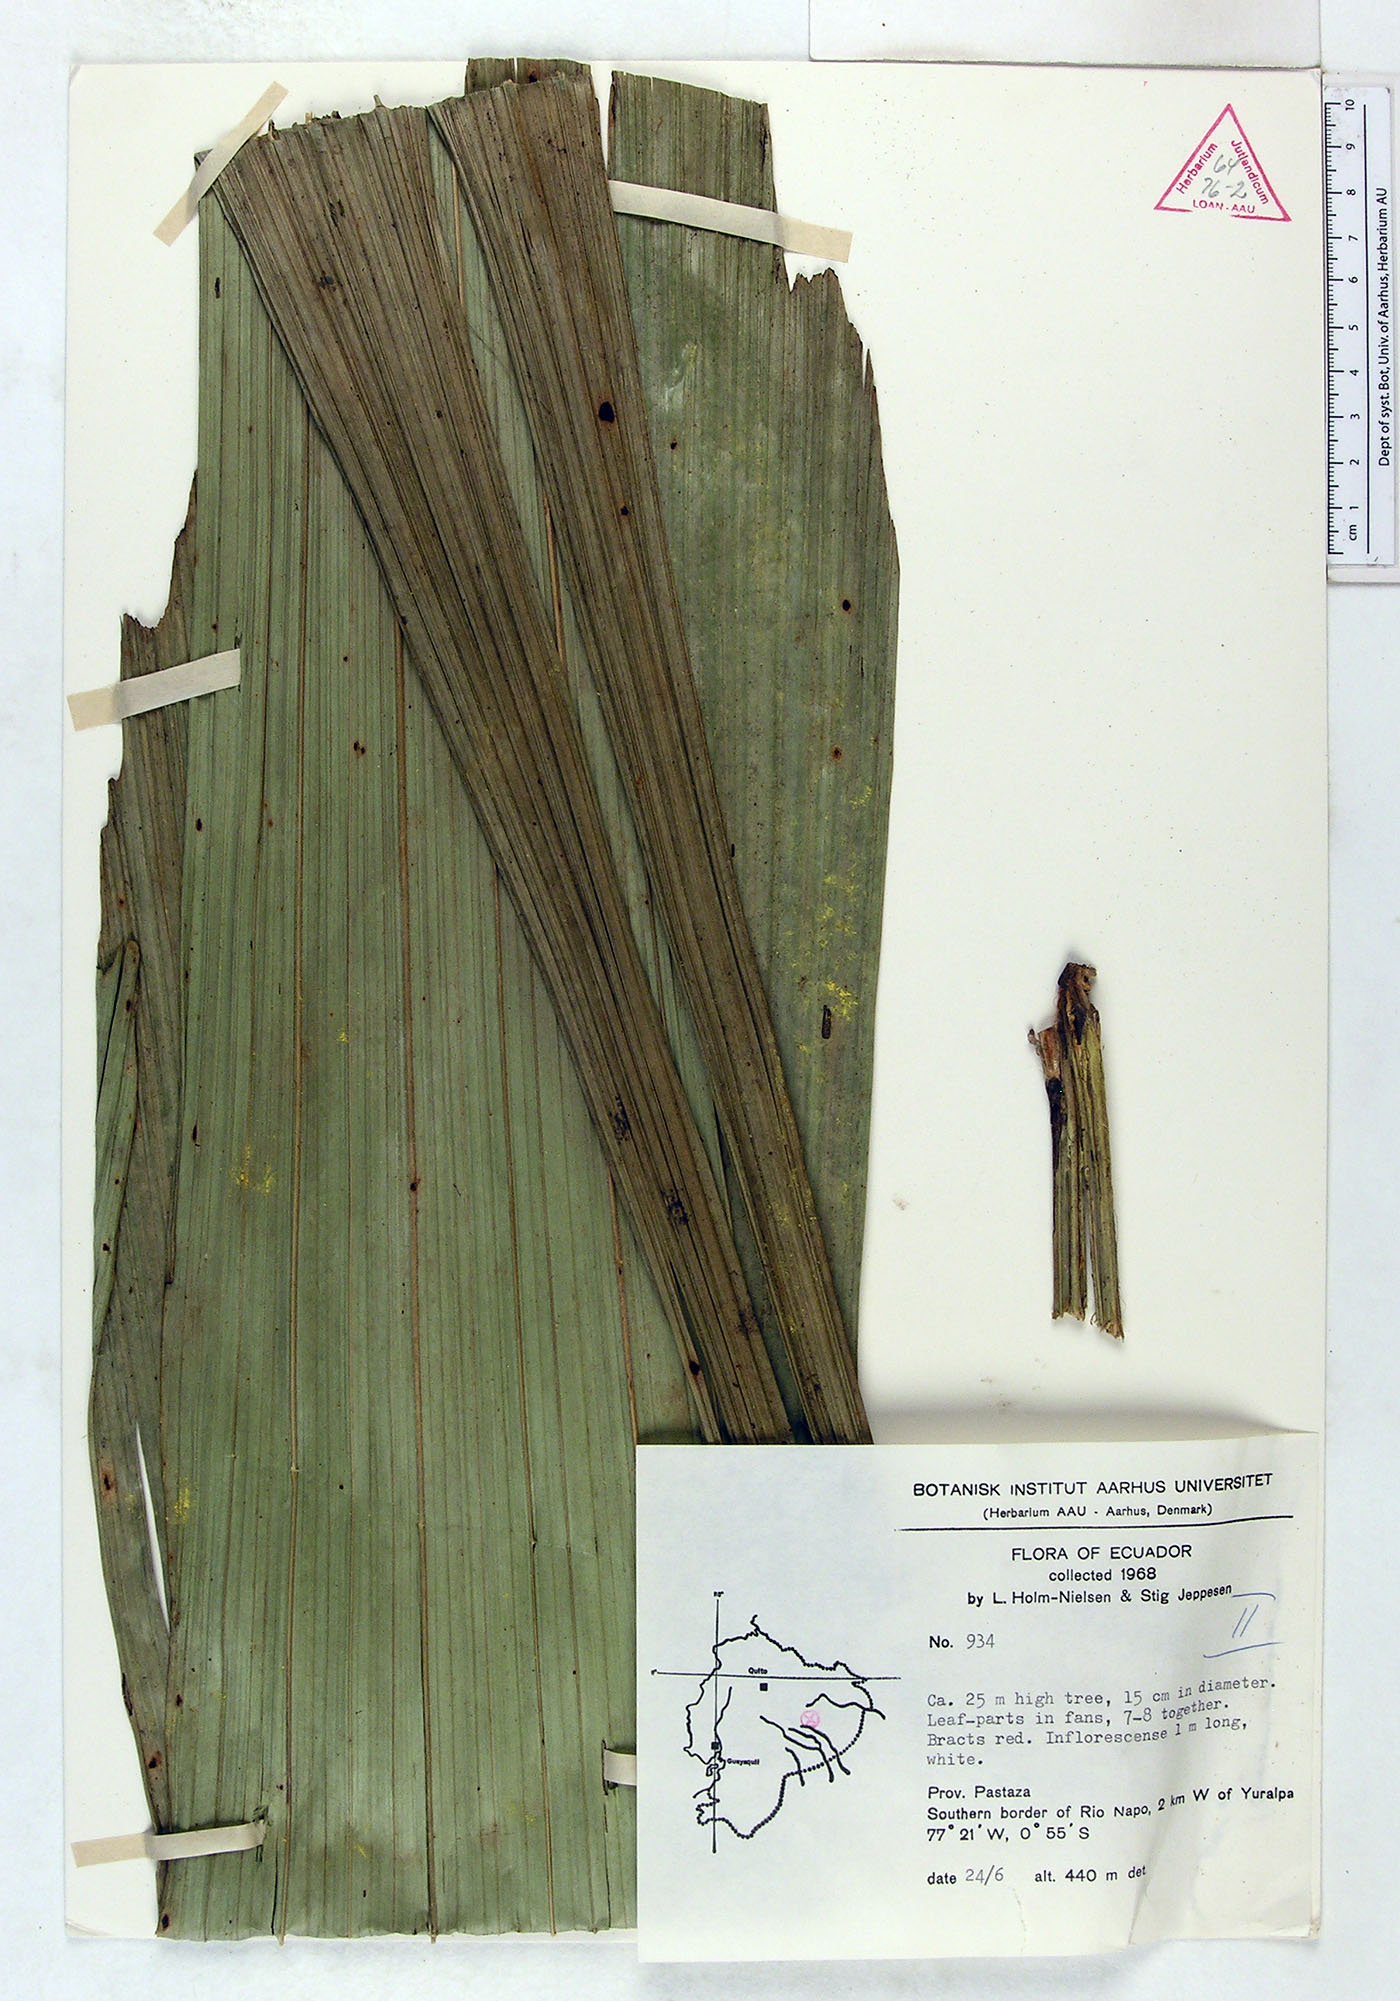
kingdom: Plantae
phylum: Tracheophyta
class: Liliopsida
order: Arecales
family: Arecaceae
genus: Iriartea
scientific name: Iriartea deltoidea
